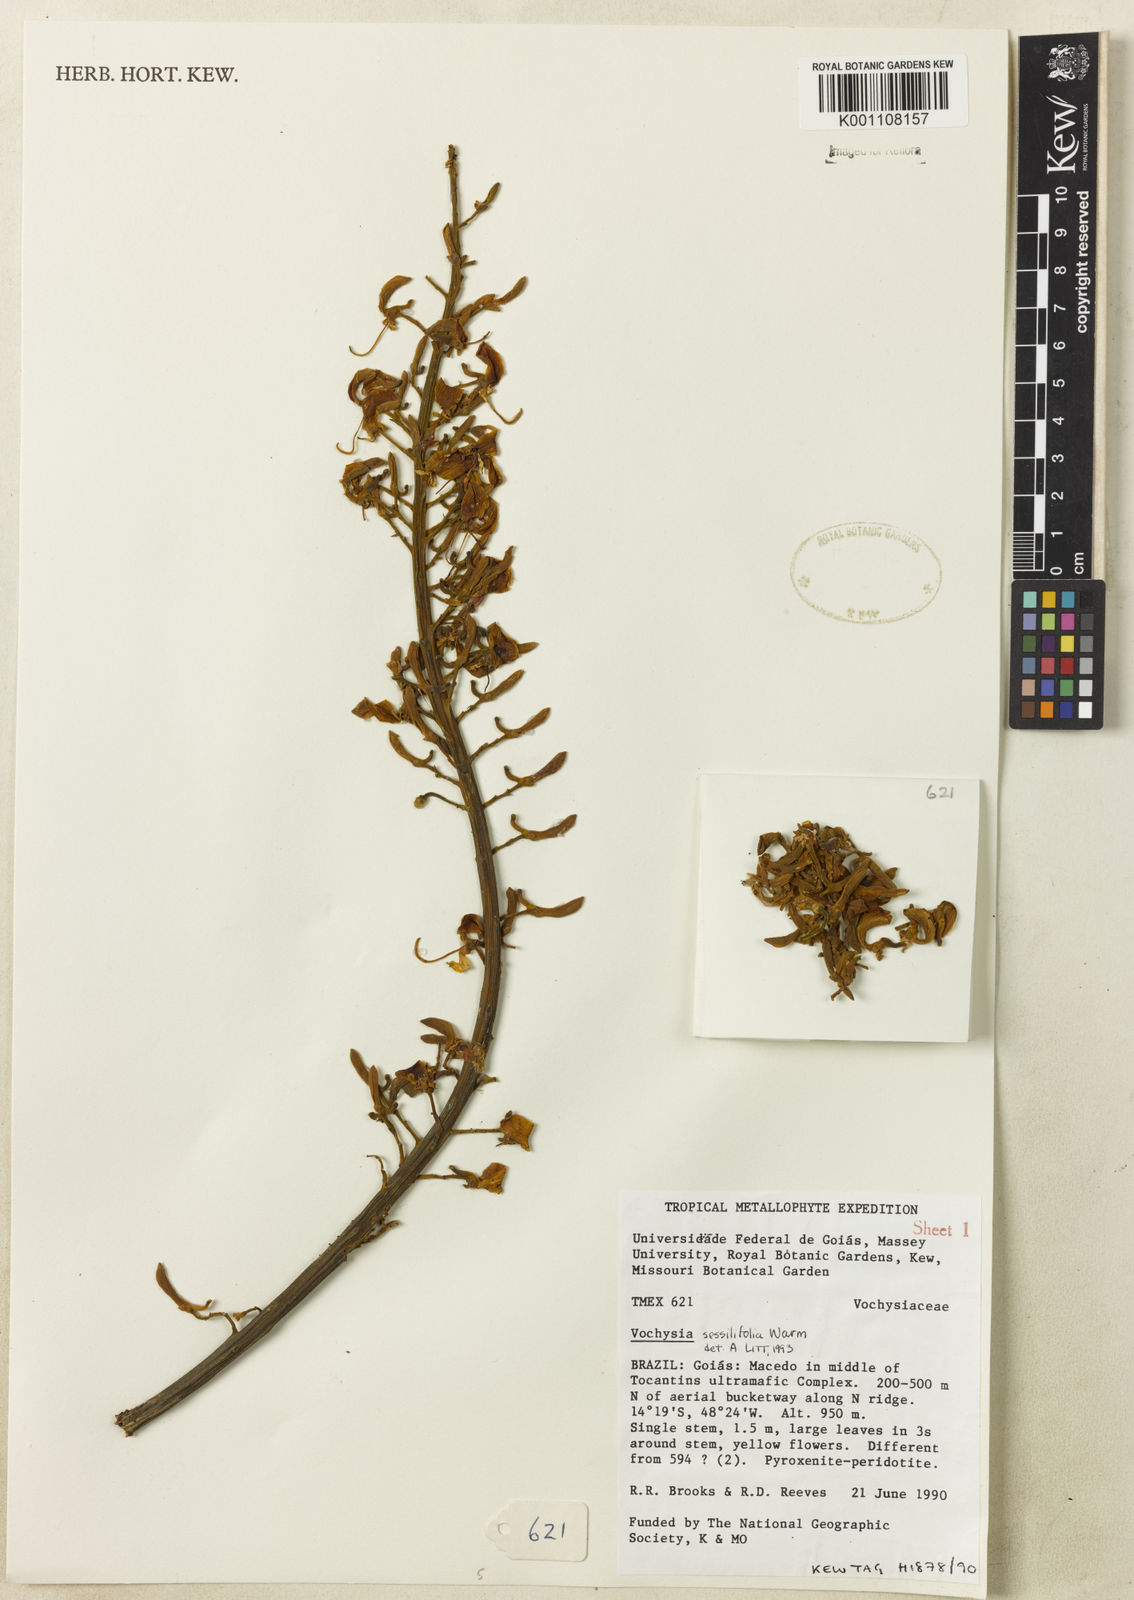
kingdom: Plantae
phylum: Tracheophyta
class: Magnoliopsida
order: Myrtales
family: Vochysiaceae
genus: Vochysia
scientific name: Vochysia sessilifolia
